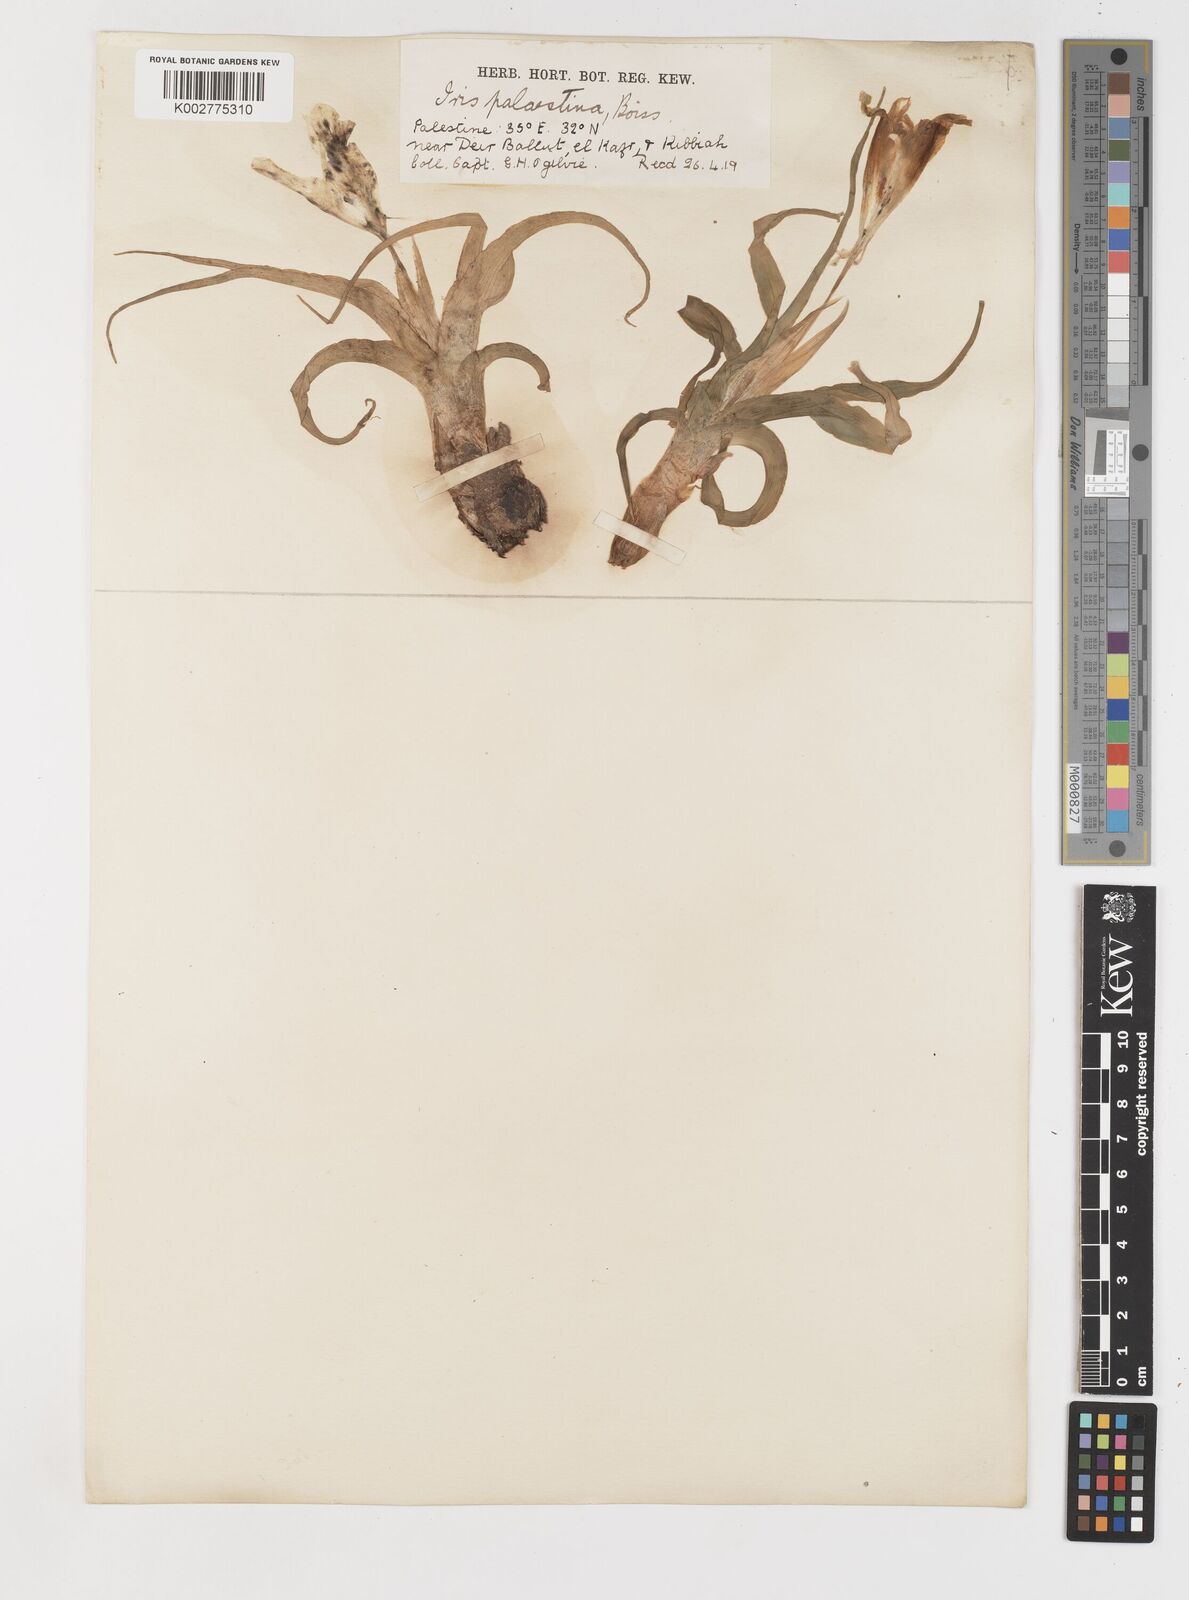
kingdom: Plantae
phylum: Tracheophyta
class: Liliopsida
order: Asparagales
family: Iridaceae
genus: Iris
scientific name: Iris palaestina
